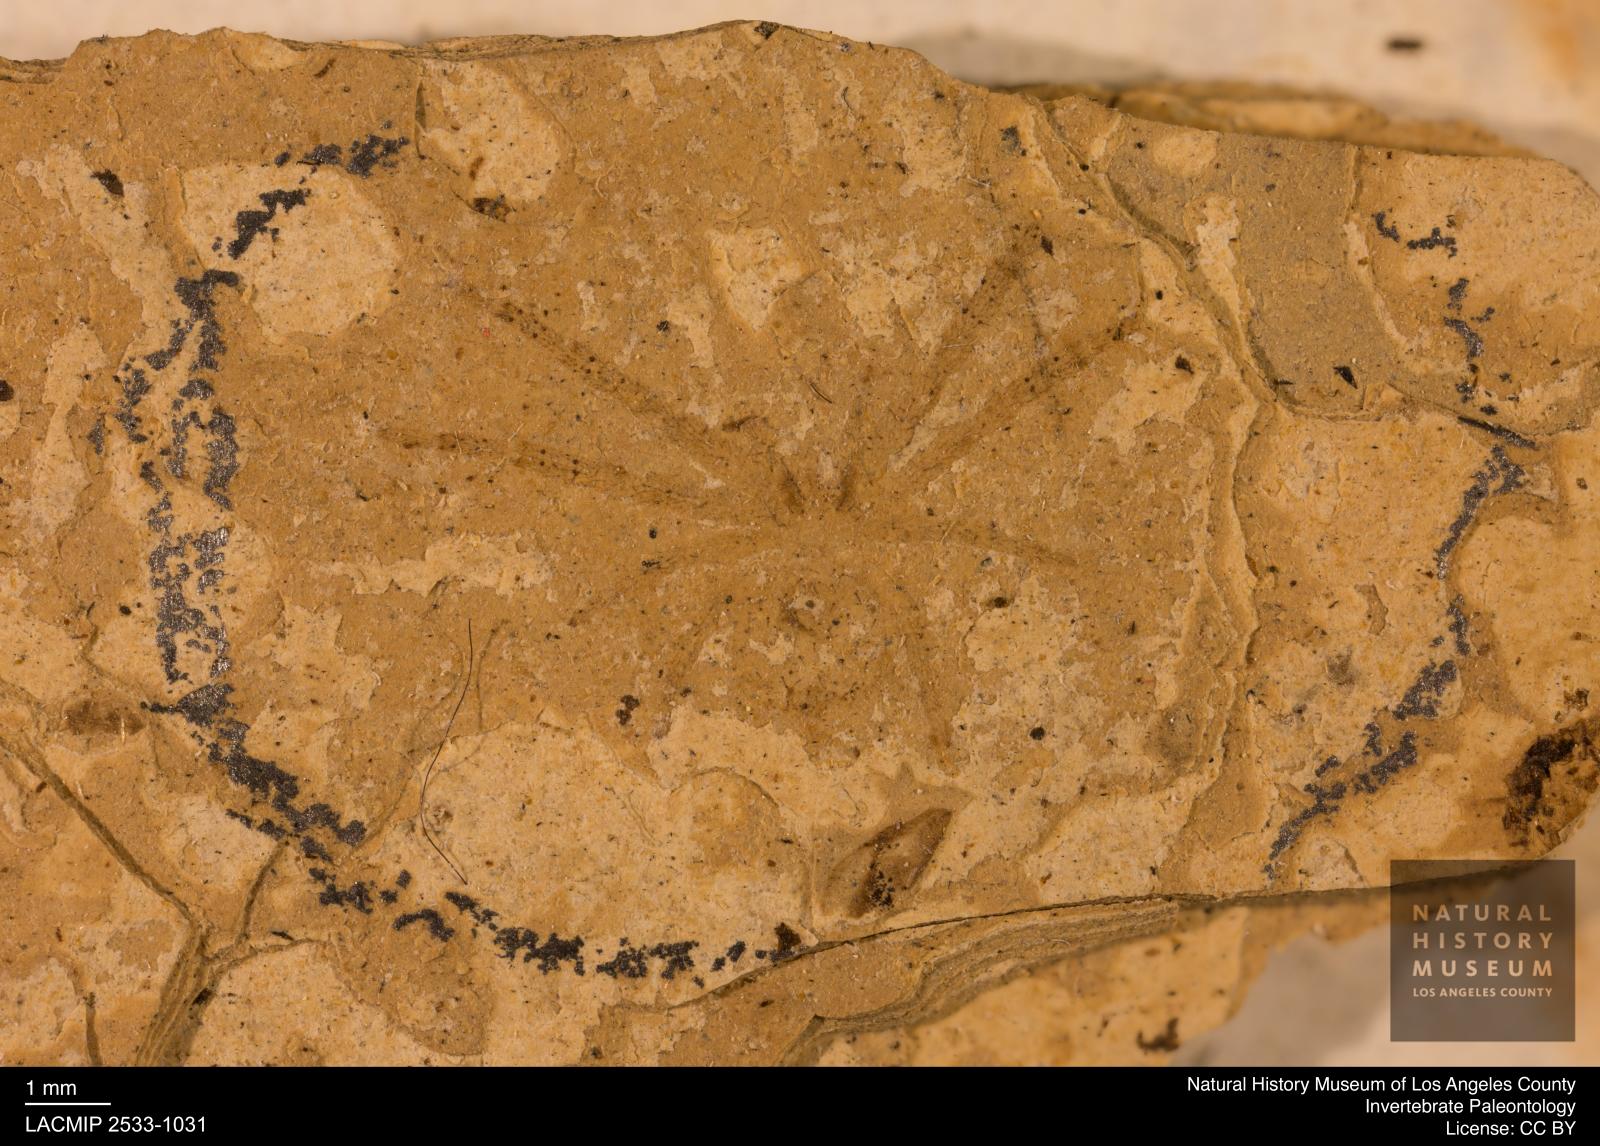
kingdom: Animalia
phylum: Arthropoda
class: Arachnida
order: Araneae
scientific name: Araneae
